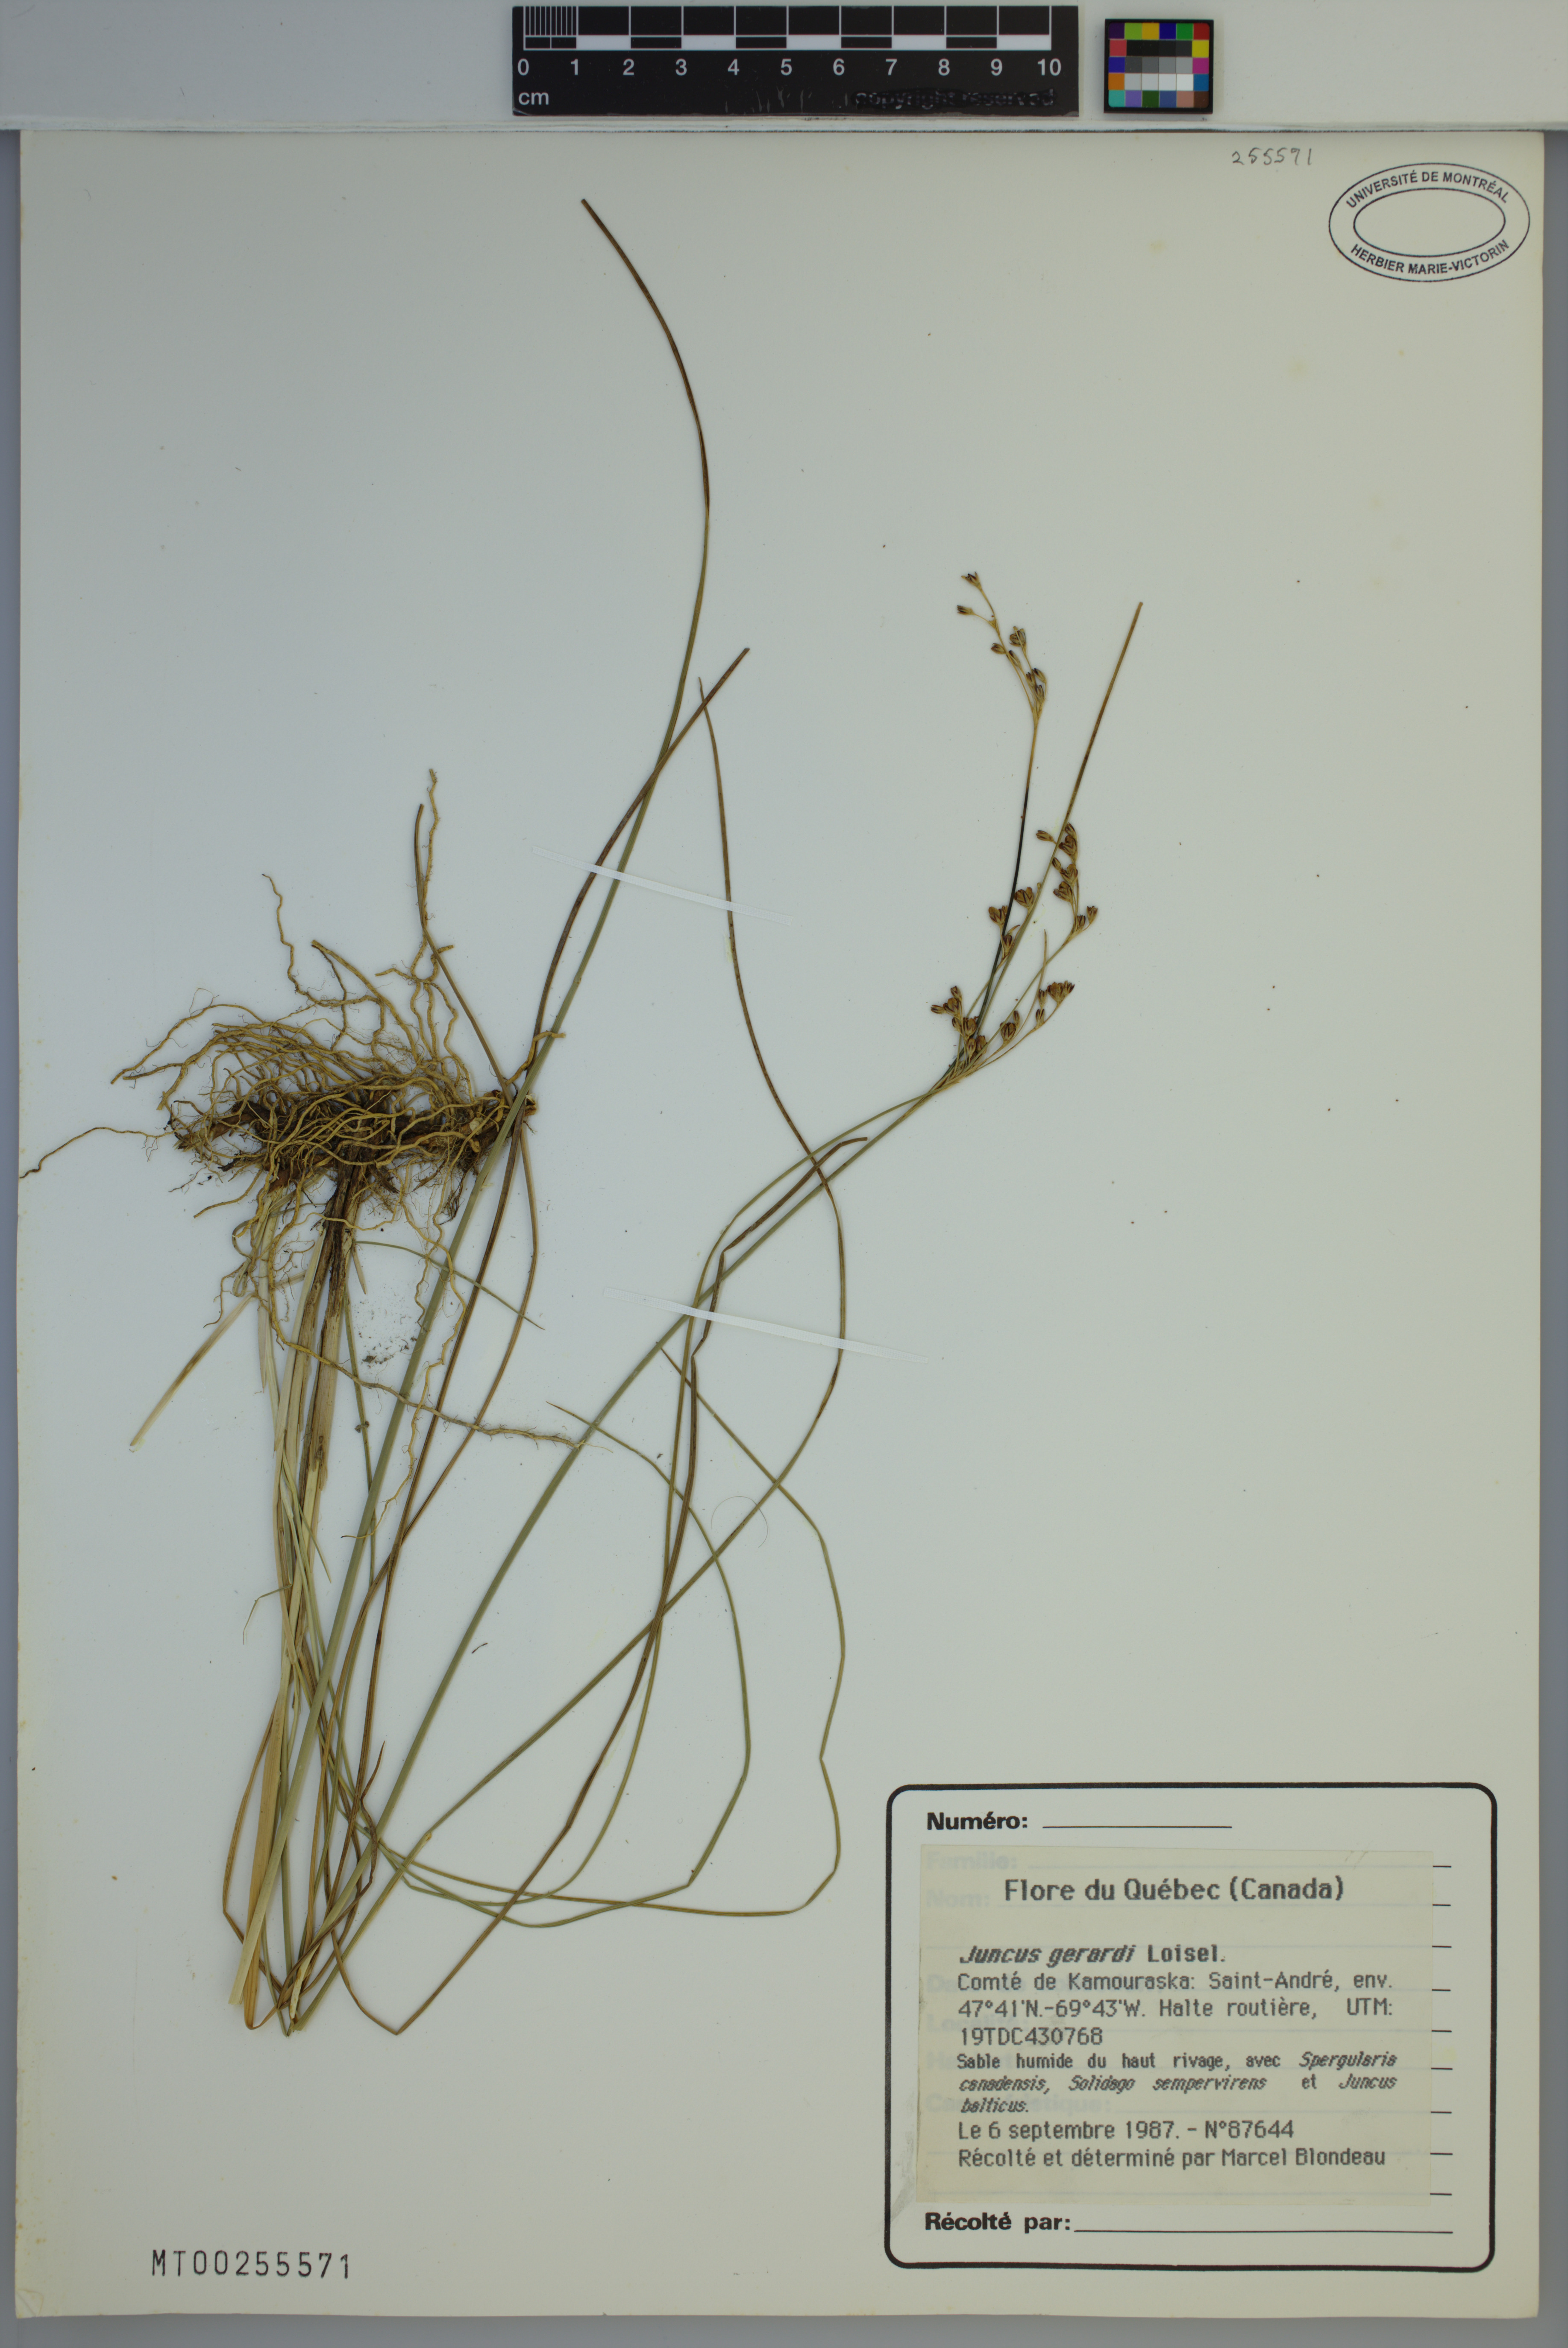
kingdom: Plantae
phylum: Tracheophyta
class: Liliopsida
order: Poales
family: Juncaceae
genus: Juncus
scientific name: Juncus gerardi
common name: Saltmarsh rush
